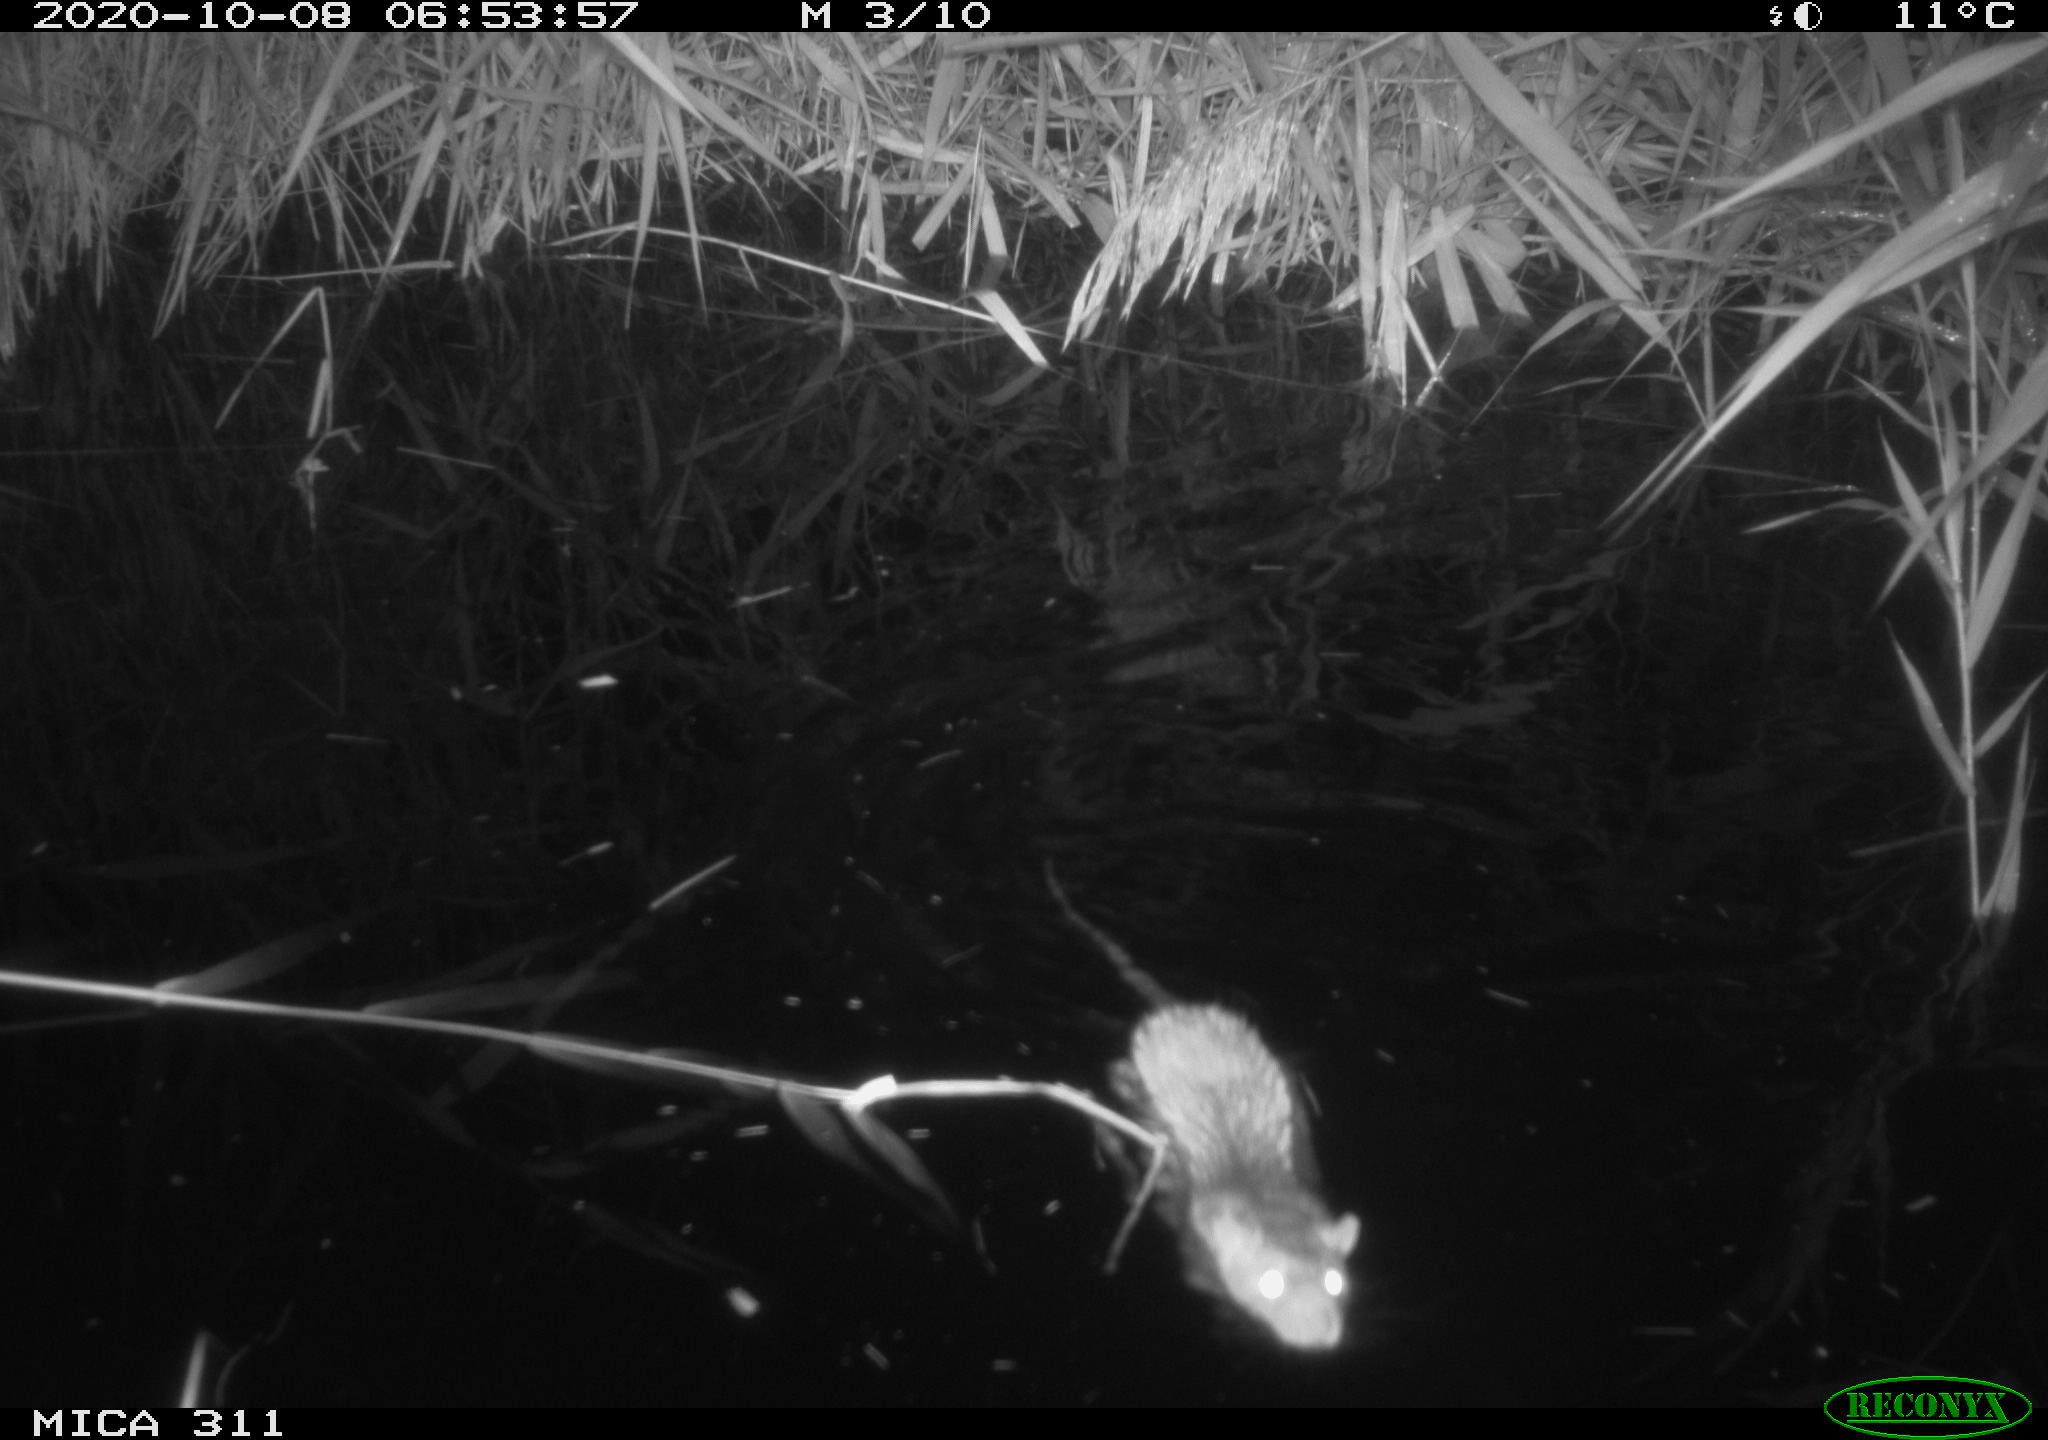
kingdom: Animalia
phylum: Chordata
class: Mammalia
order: Rodentia
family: Muridae
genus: Rattus
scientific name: Rattus norvegicus
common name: Brown rat
